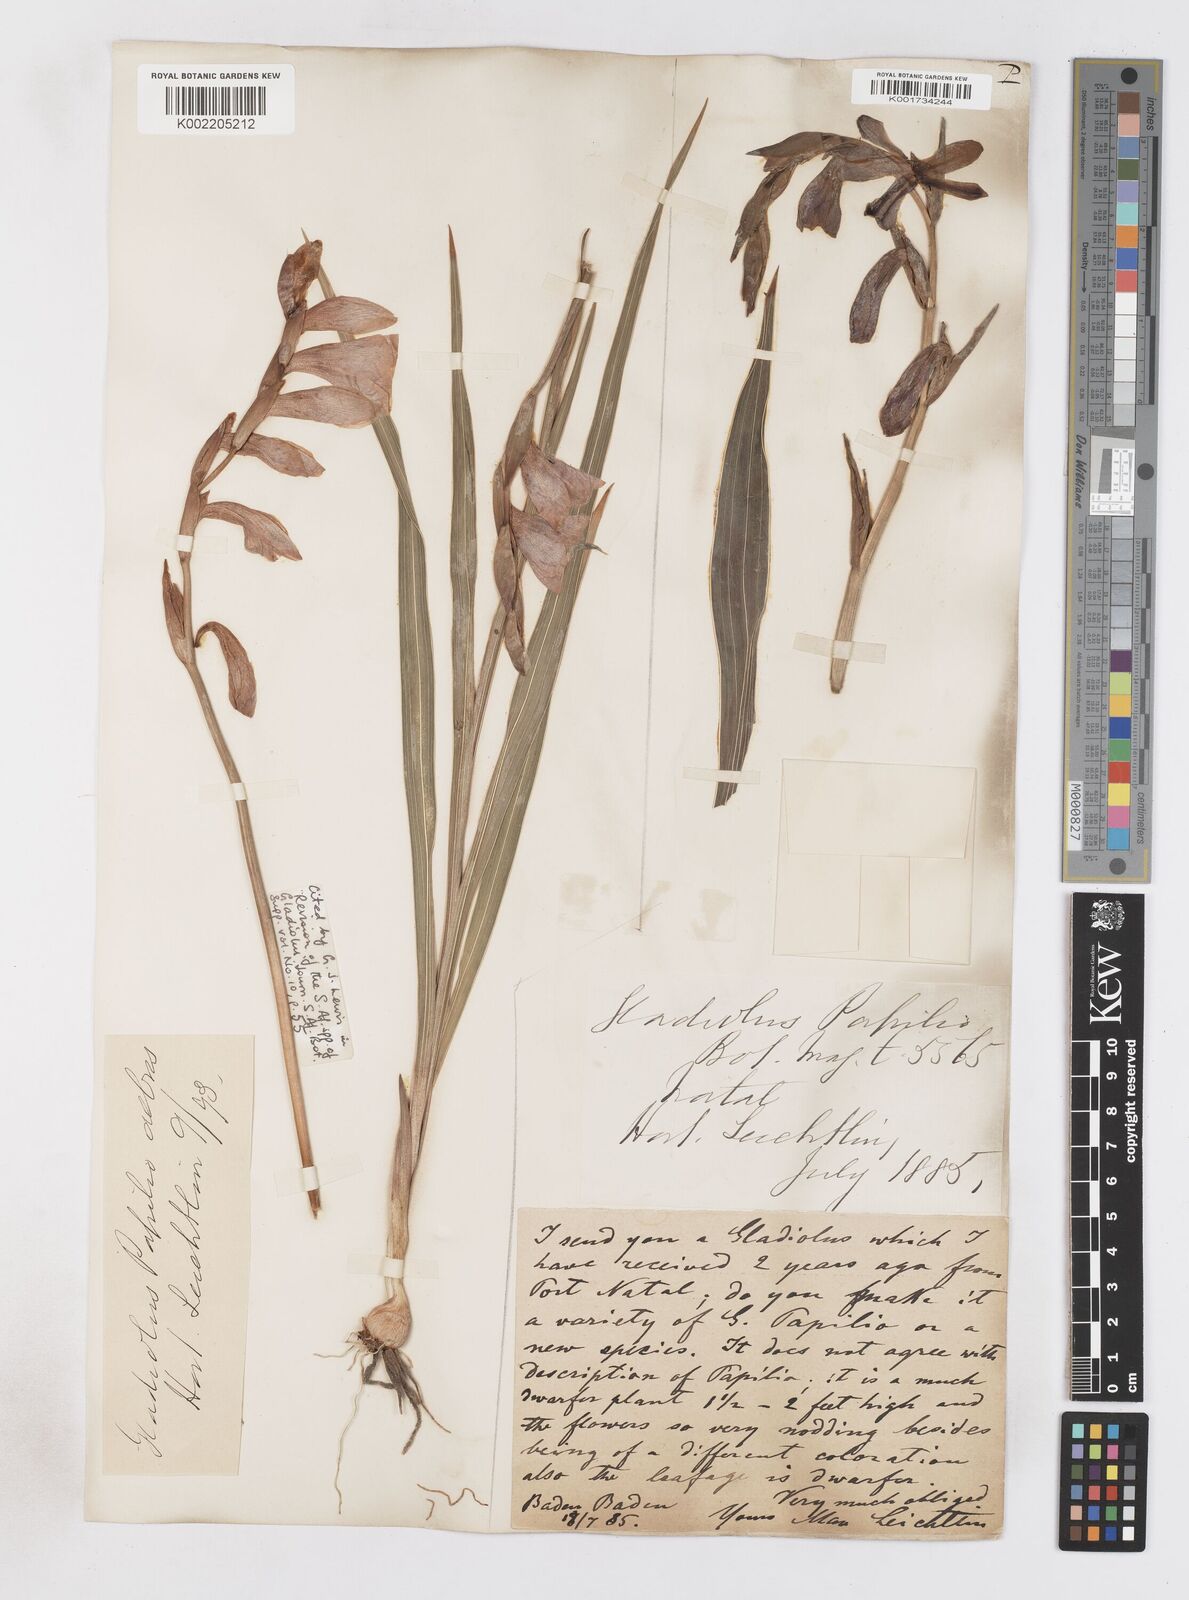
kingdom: Plantae
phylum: Tracheophyta
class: Liliopsida
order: Asparagales
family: Iridaceae
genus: Gladiolus
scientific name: Gladiolus papilio
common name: Goldblotch gladiolus
